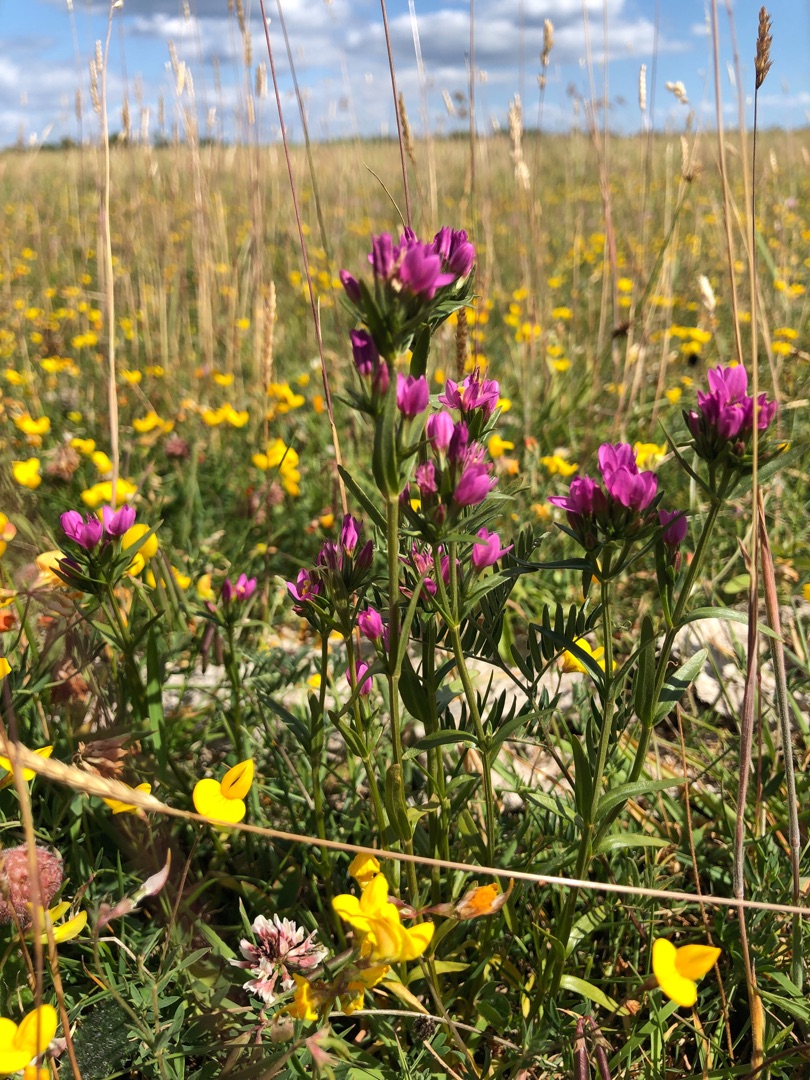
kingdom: Plantae
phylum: Tracheophyta
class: Magnoliopsida
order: Gentianales
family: Gentianaceae
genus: Centaurium
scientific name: Centaurium littorale
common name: Strand-tusindgylden
